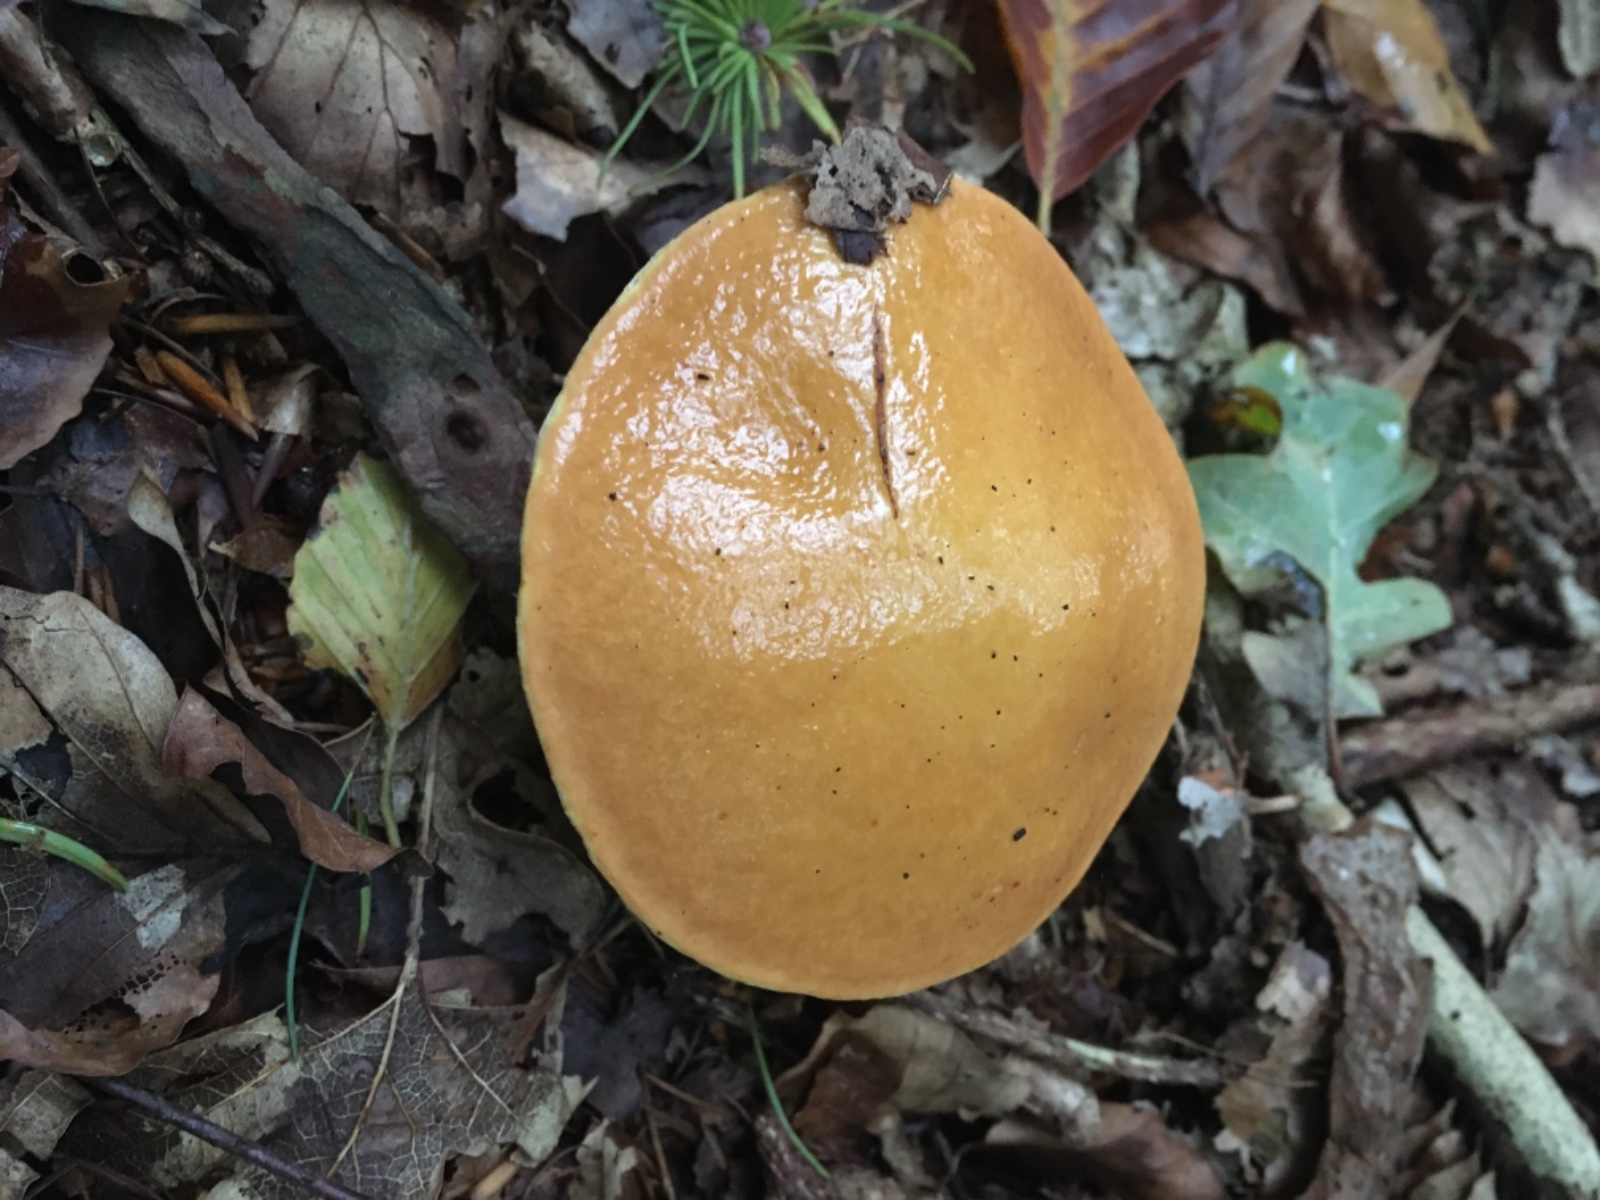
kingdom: Fungi
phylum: Basidiomycota
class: Agaricomycetes
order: Boletales
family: Suillaceae
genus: Suillus
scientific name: Suillus grevillei
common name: lærke-slimrørhat
